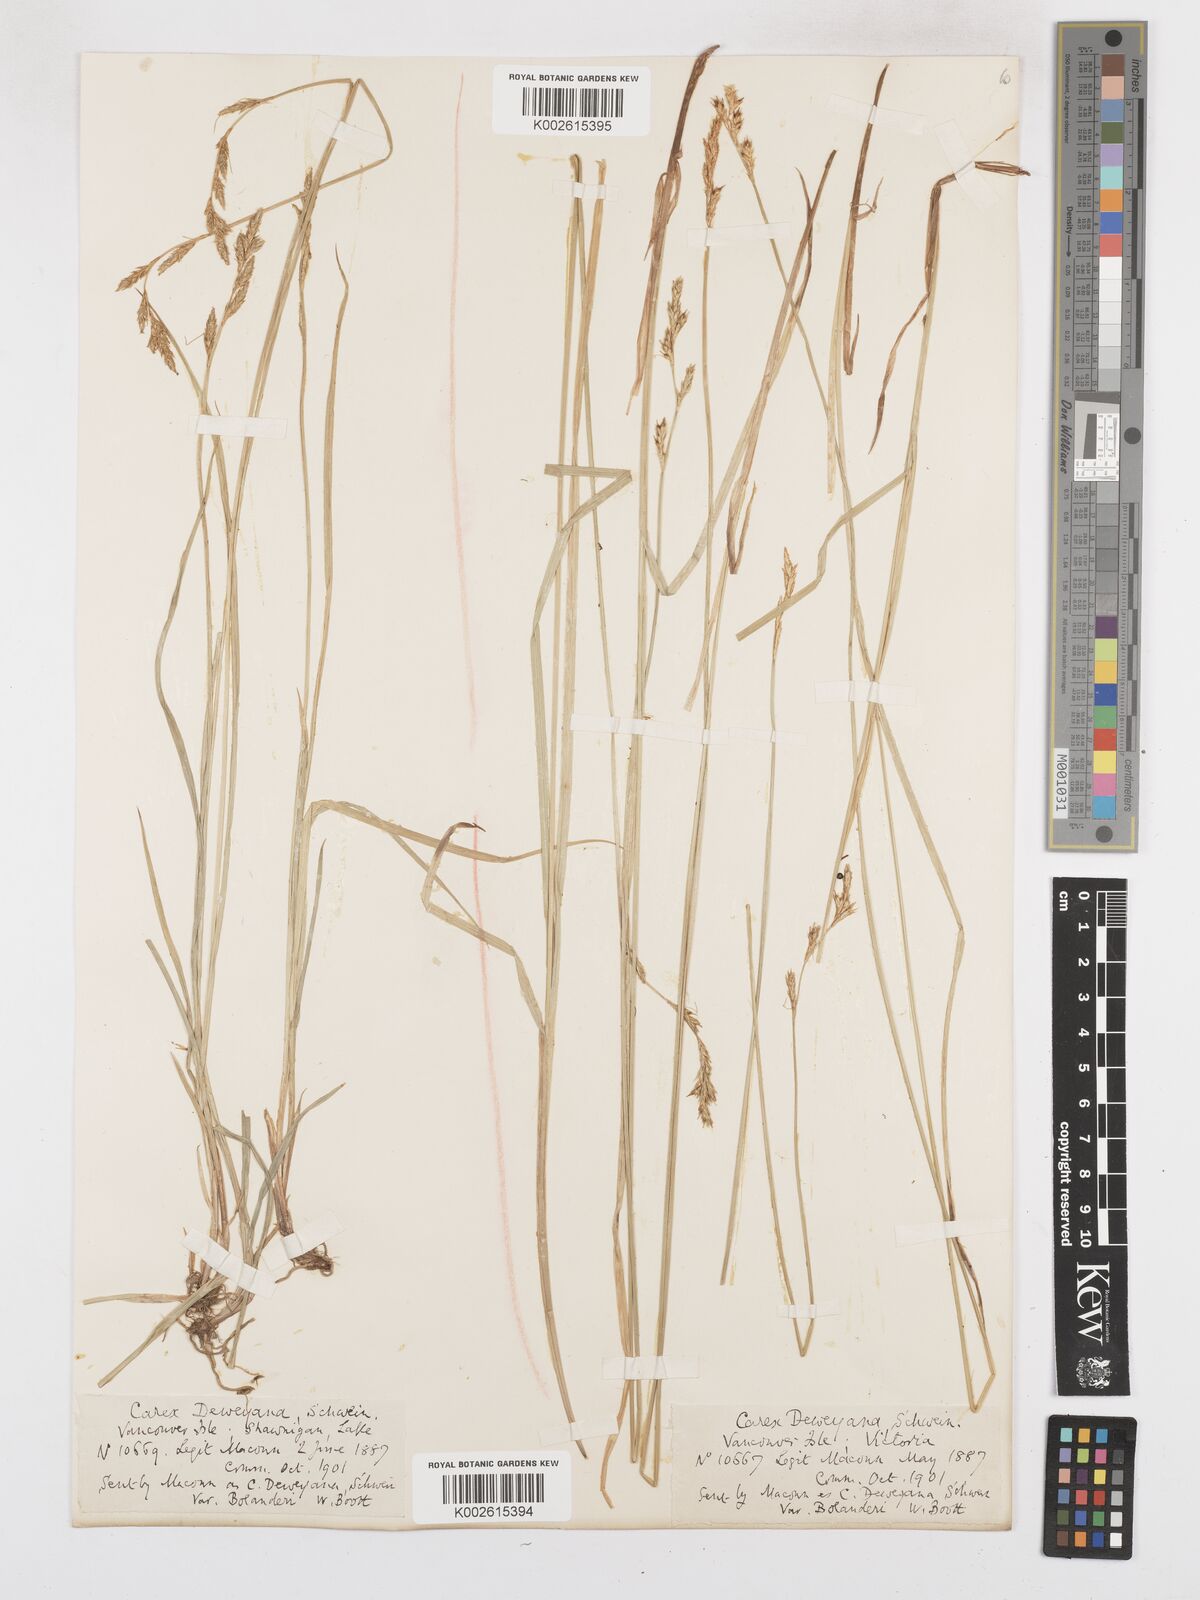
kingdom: Plantae
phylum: Tracheophyta
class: Liliopsida
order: Poales
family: Cyperaceae
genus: Carex
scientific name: Carex bolanderi
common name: Bolander's sedge
